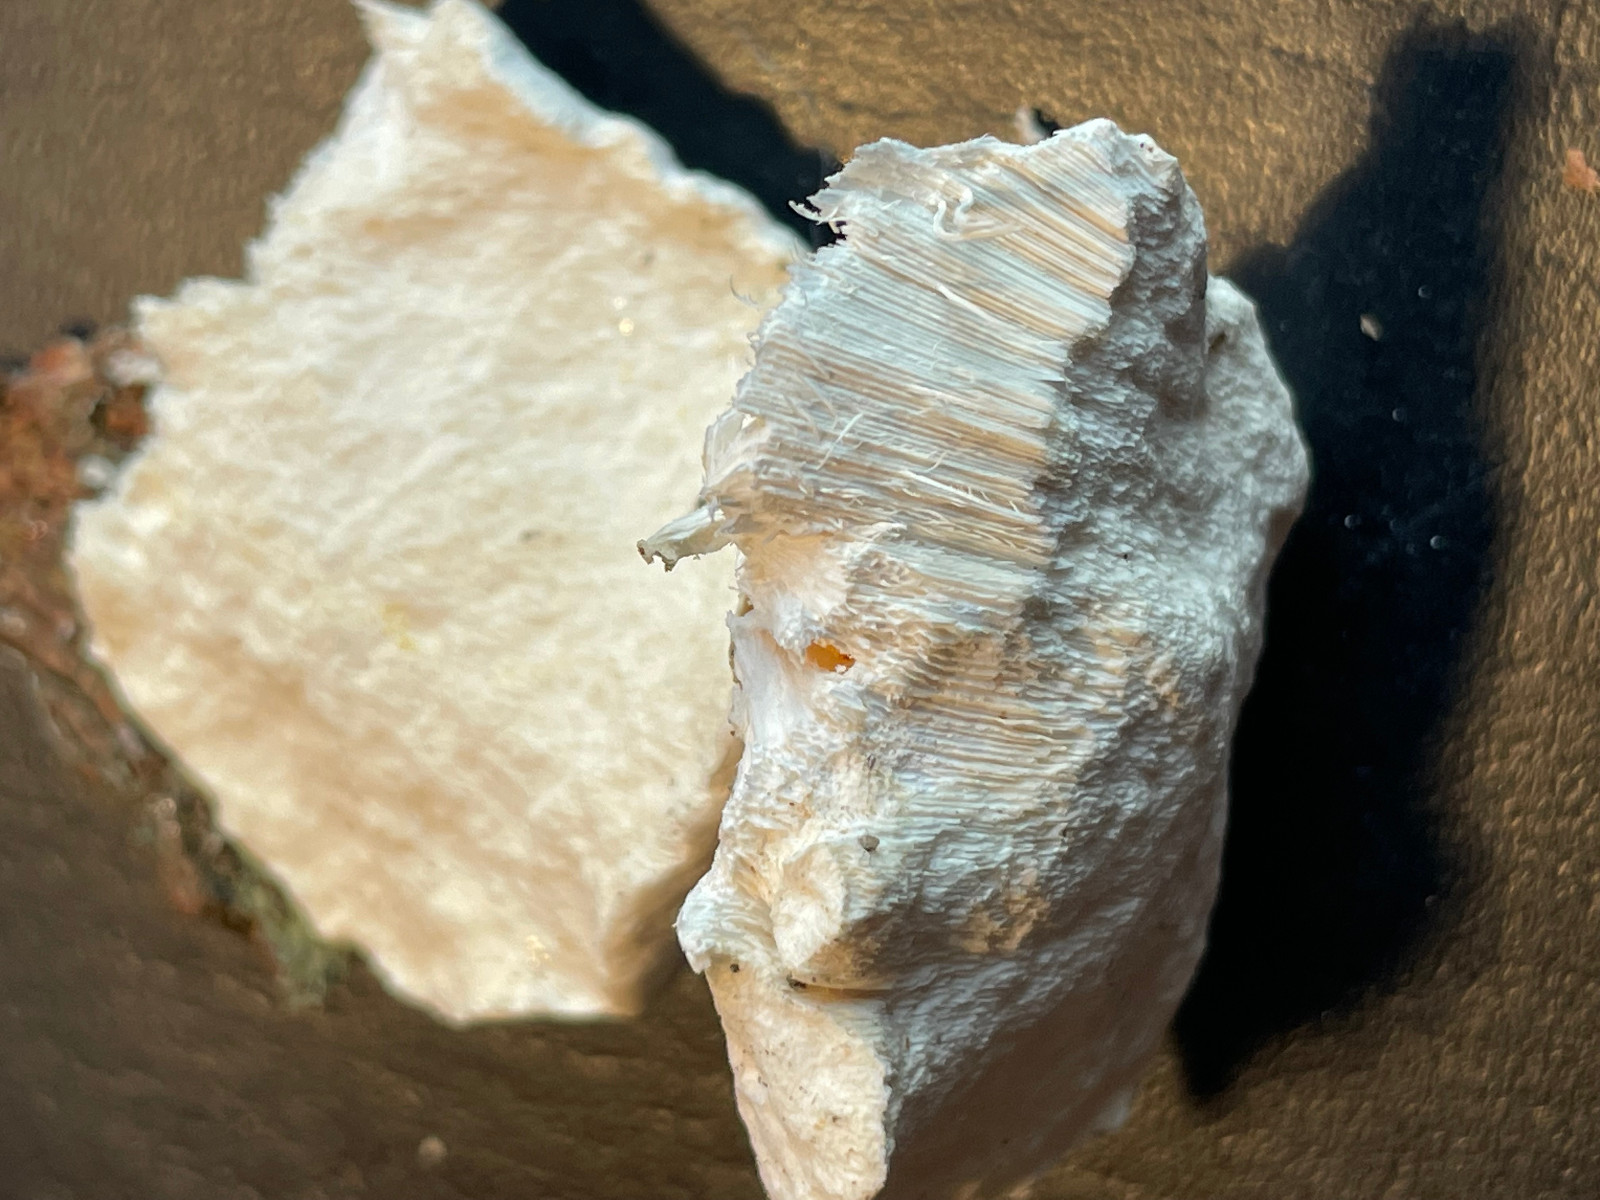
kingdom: Fungi
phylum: Basidiomycota
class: Agaricomycetes
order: Polyporales
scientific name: Polyporales
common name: poresvampordenen
